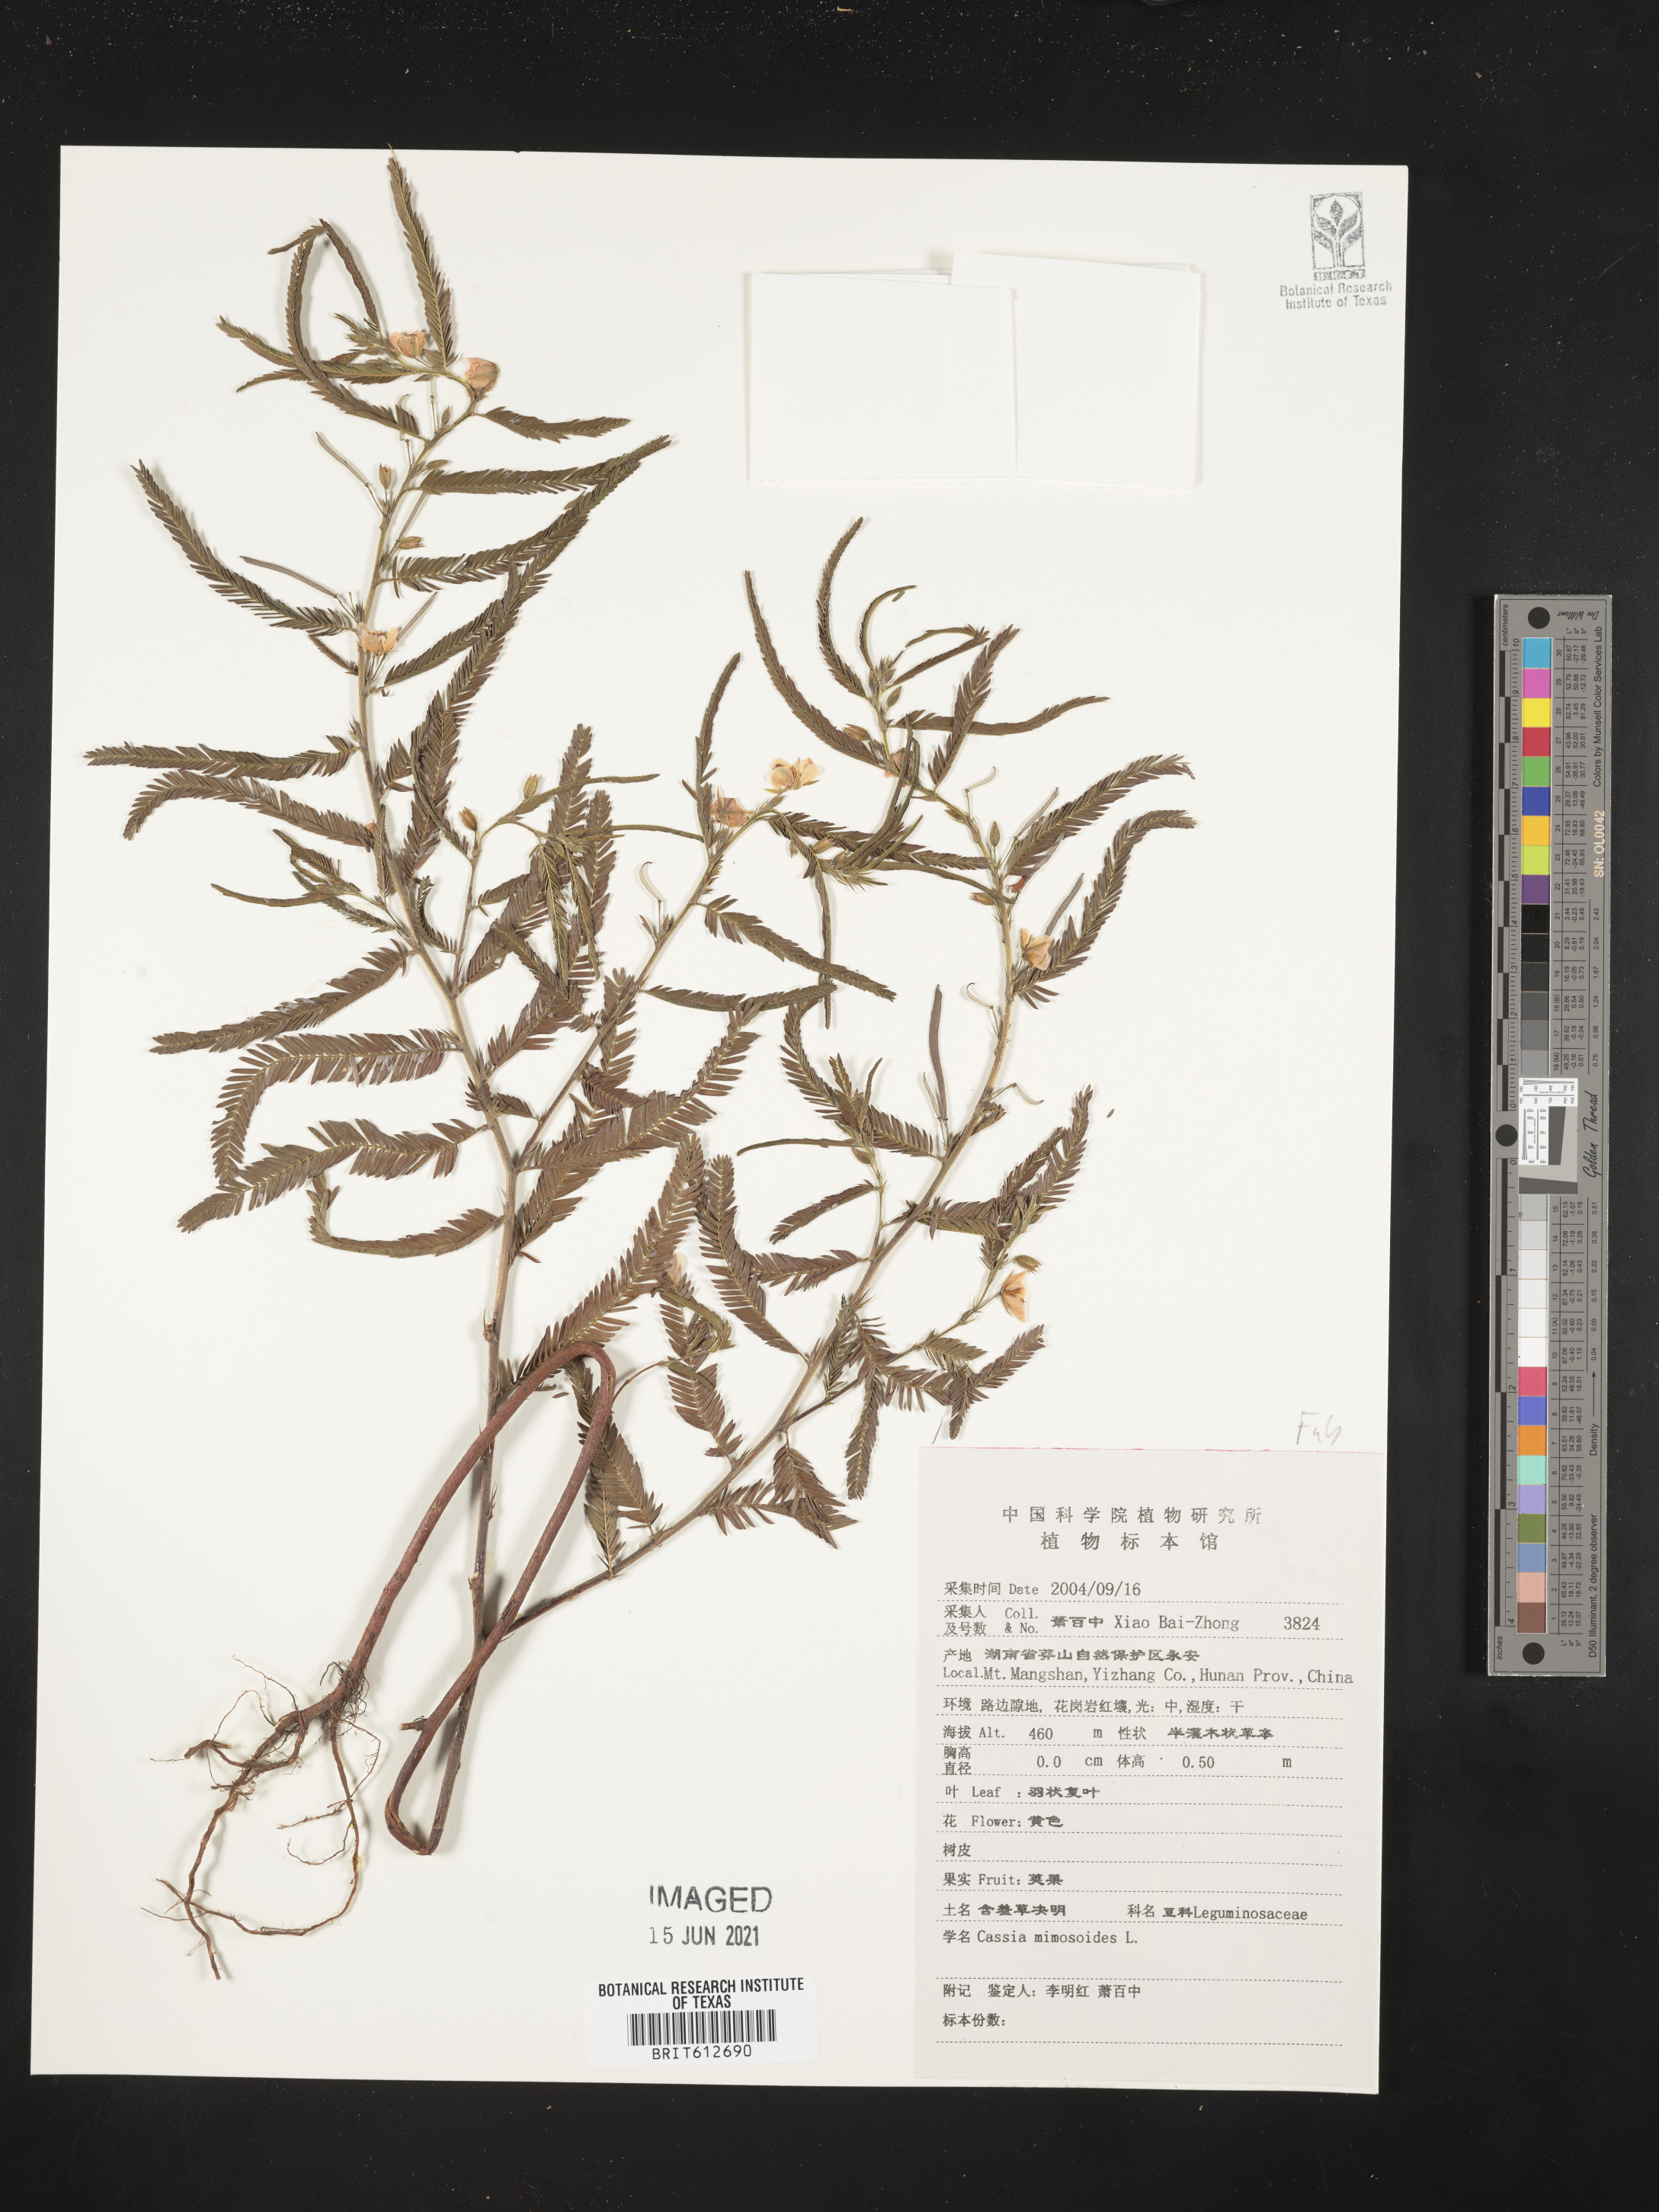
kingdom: Plantae
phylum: Tracheophyta
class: Magnoliopsida
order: Fabales
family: Fabaceae
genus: Chamaecrista
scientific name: Chamaecrista mimosoides
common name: Fish-bone cassia
